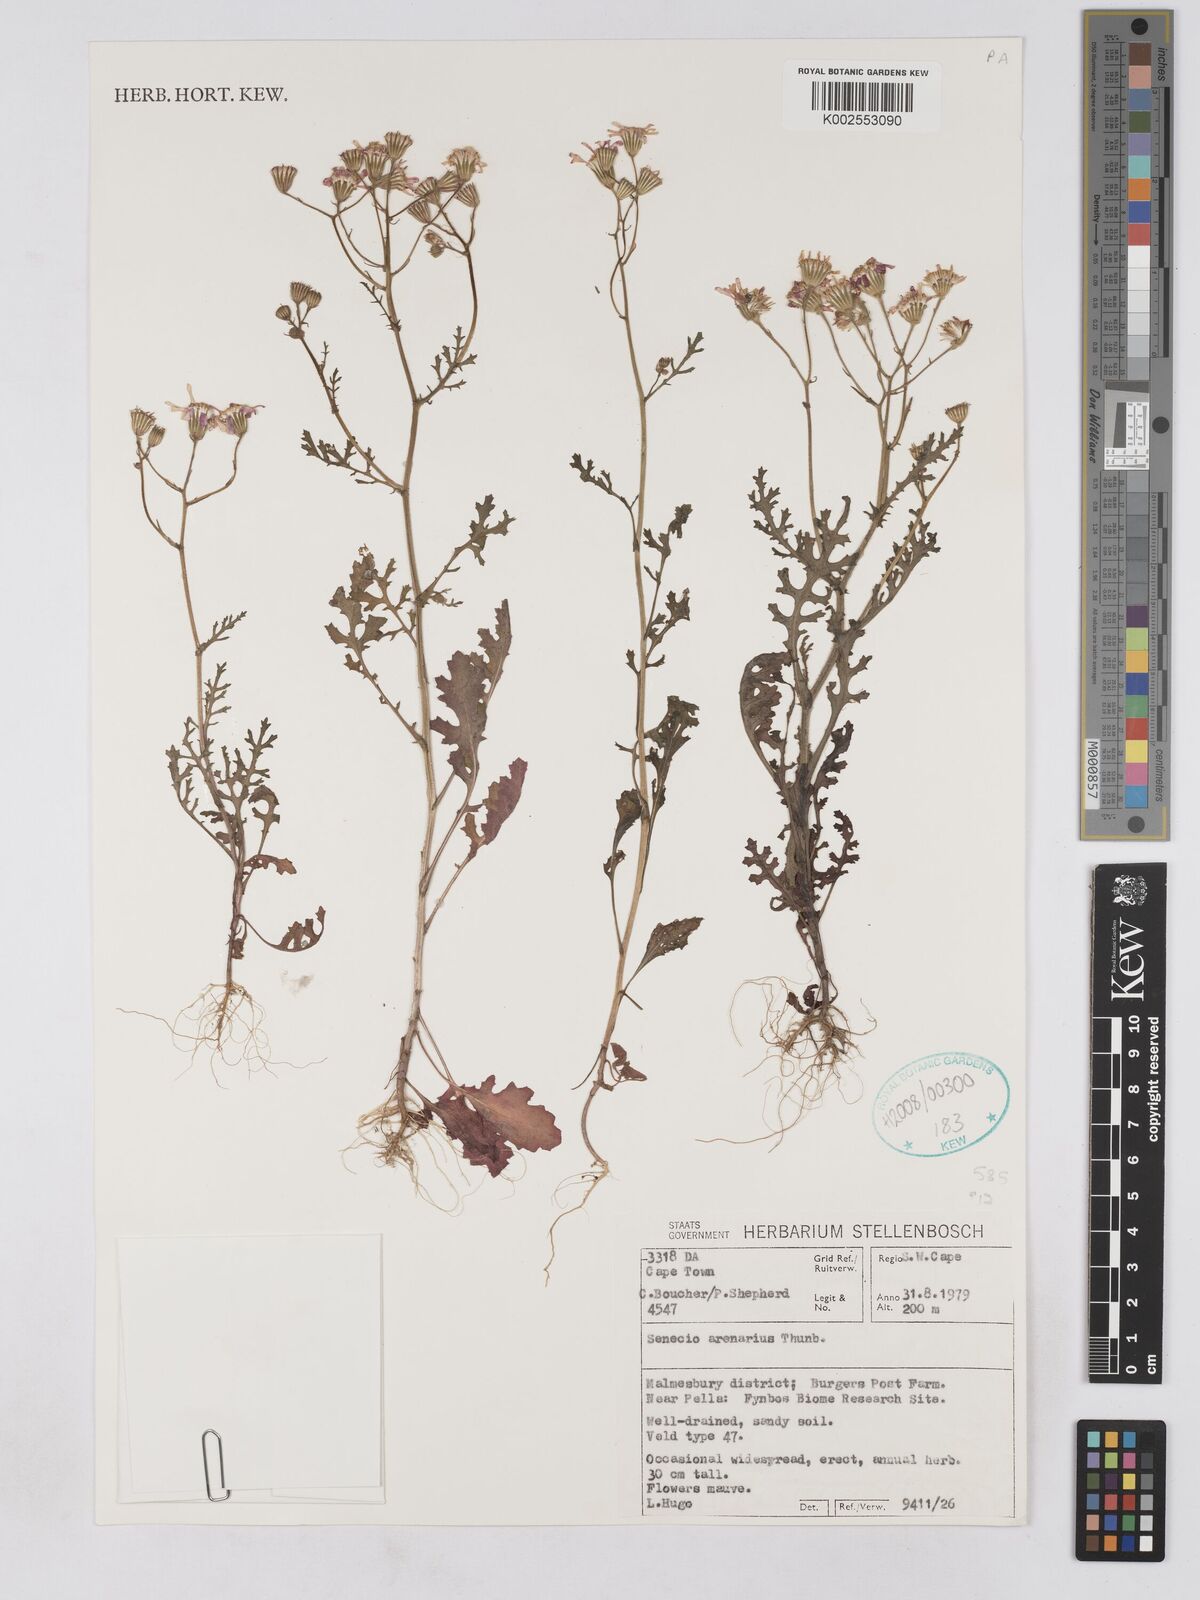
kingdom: Plantae
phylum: Tracheophyta
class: Magnoliopsida
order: Asterales
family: Asteraceae
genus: Senecio
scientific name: Senecio arenarius
